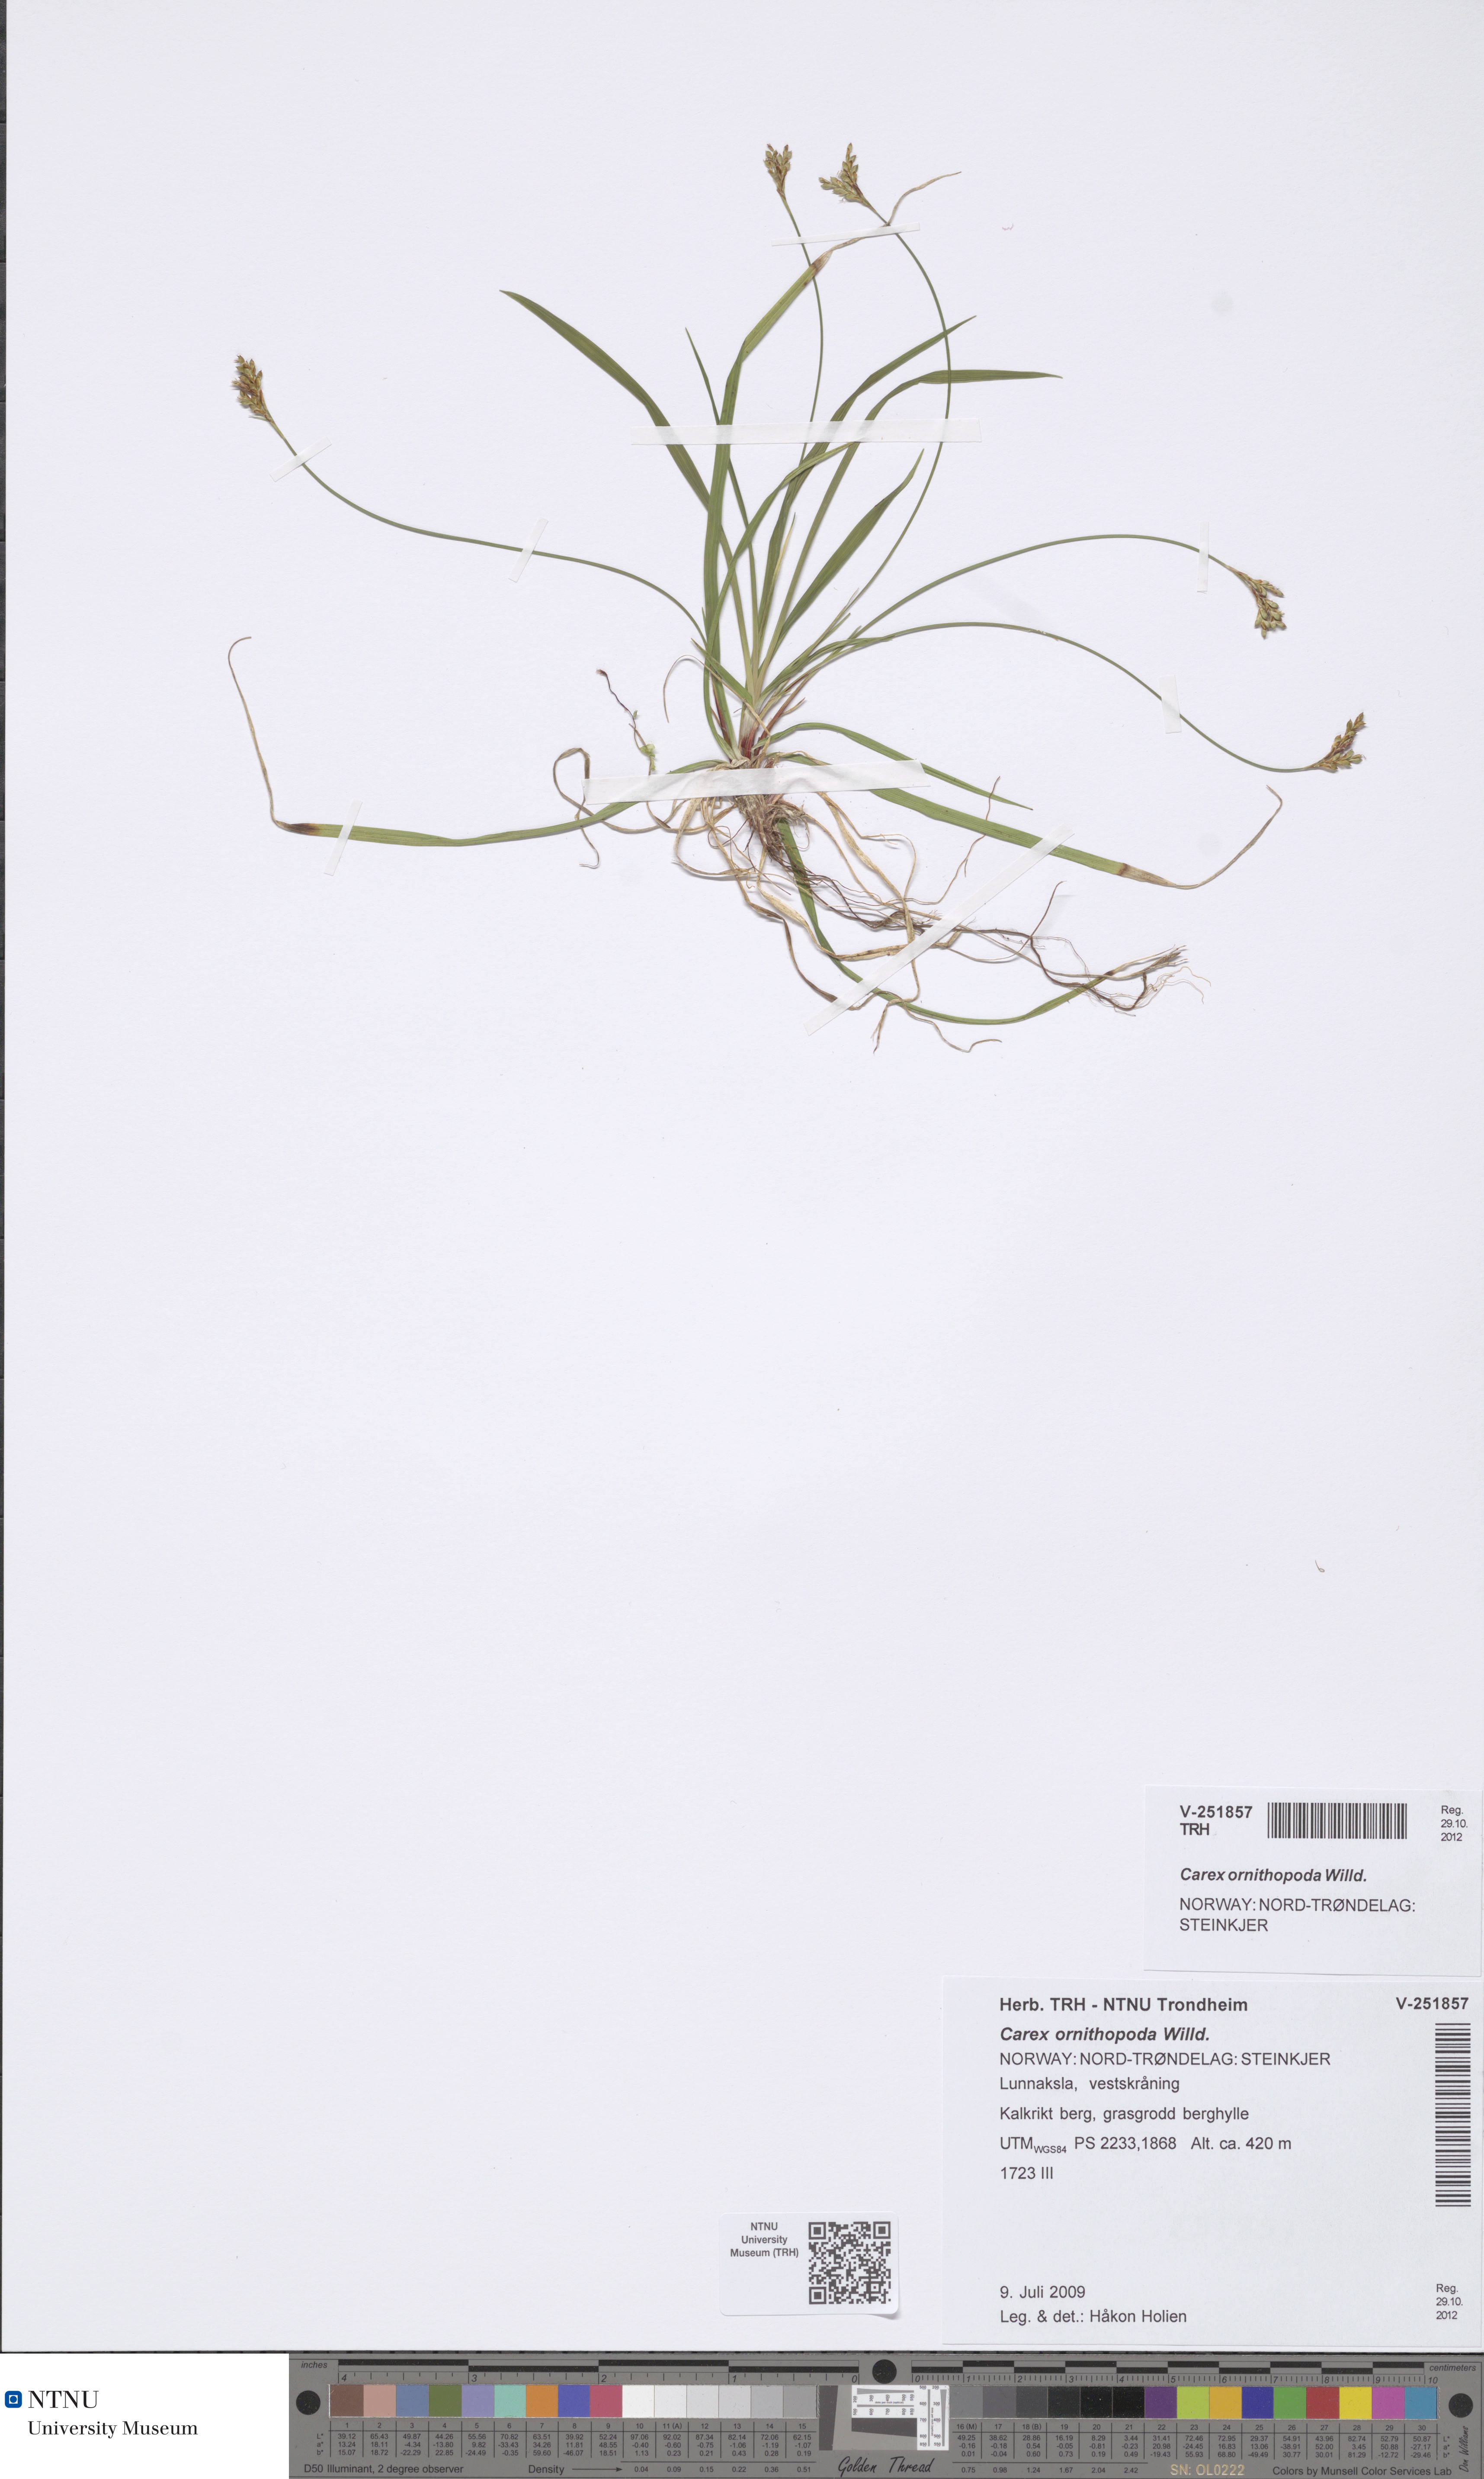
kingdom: Plantae
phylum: Tracheophyta
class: Liliopsida
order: Poales
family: Cyperaceae
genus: Carex
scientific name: Carex ornithopoda
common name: Bird's-foot sedge
